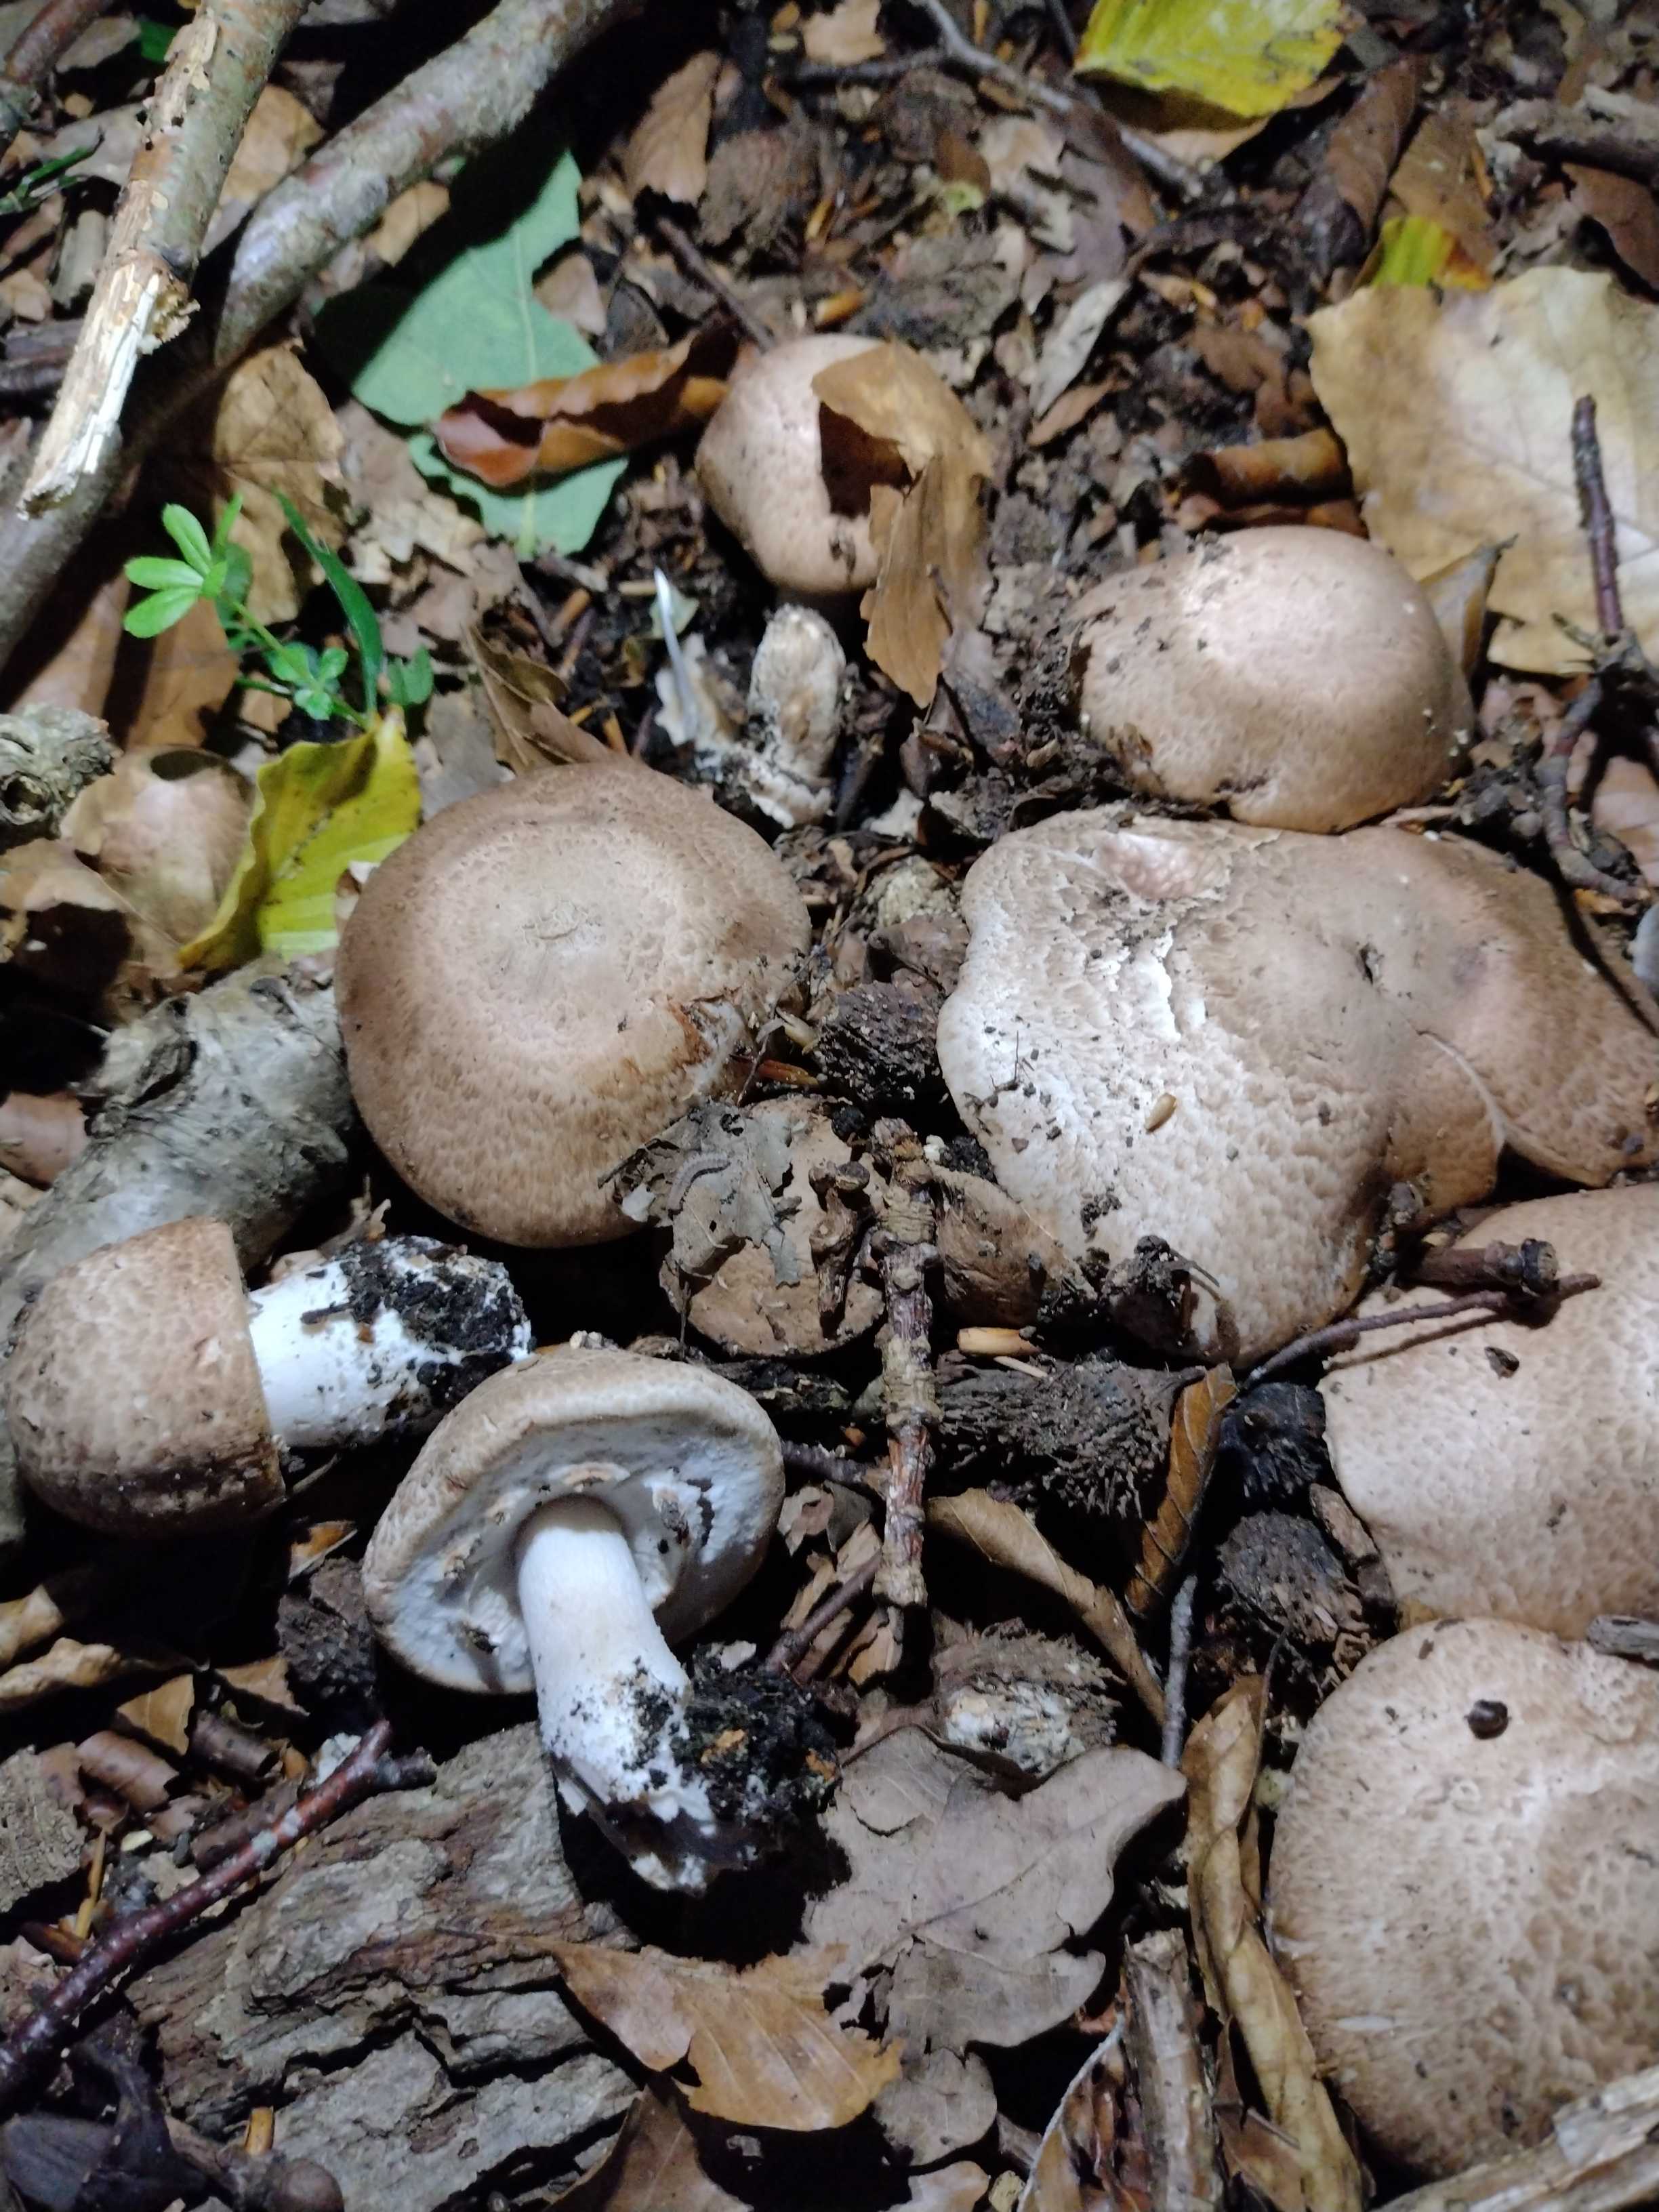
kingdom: Fungi
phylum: Basidiomycota
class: Agaricomycetes
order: Agaricales
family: Agaricaceae
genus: Agaricus
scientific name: Agaricus
